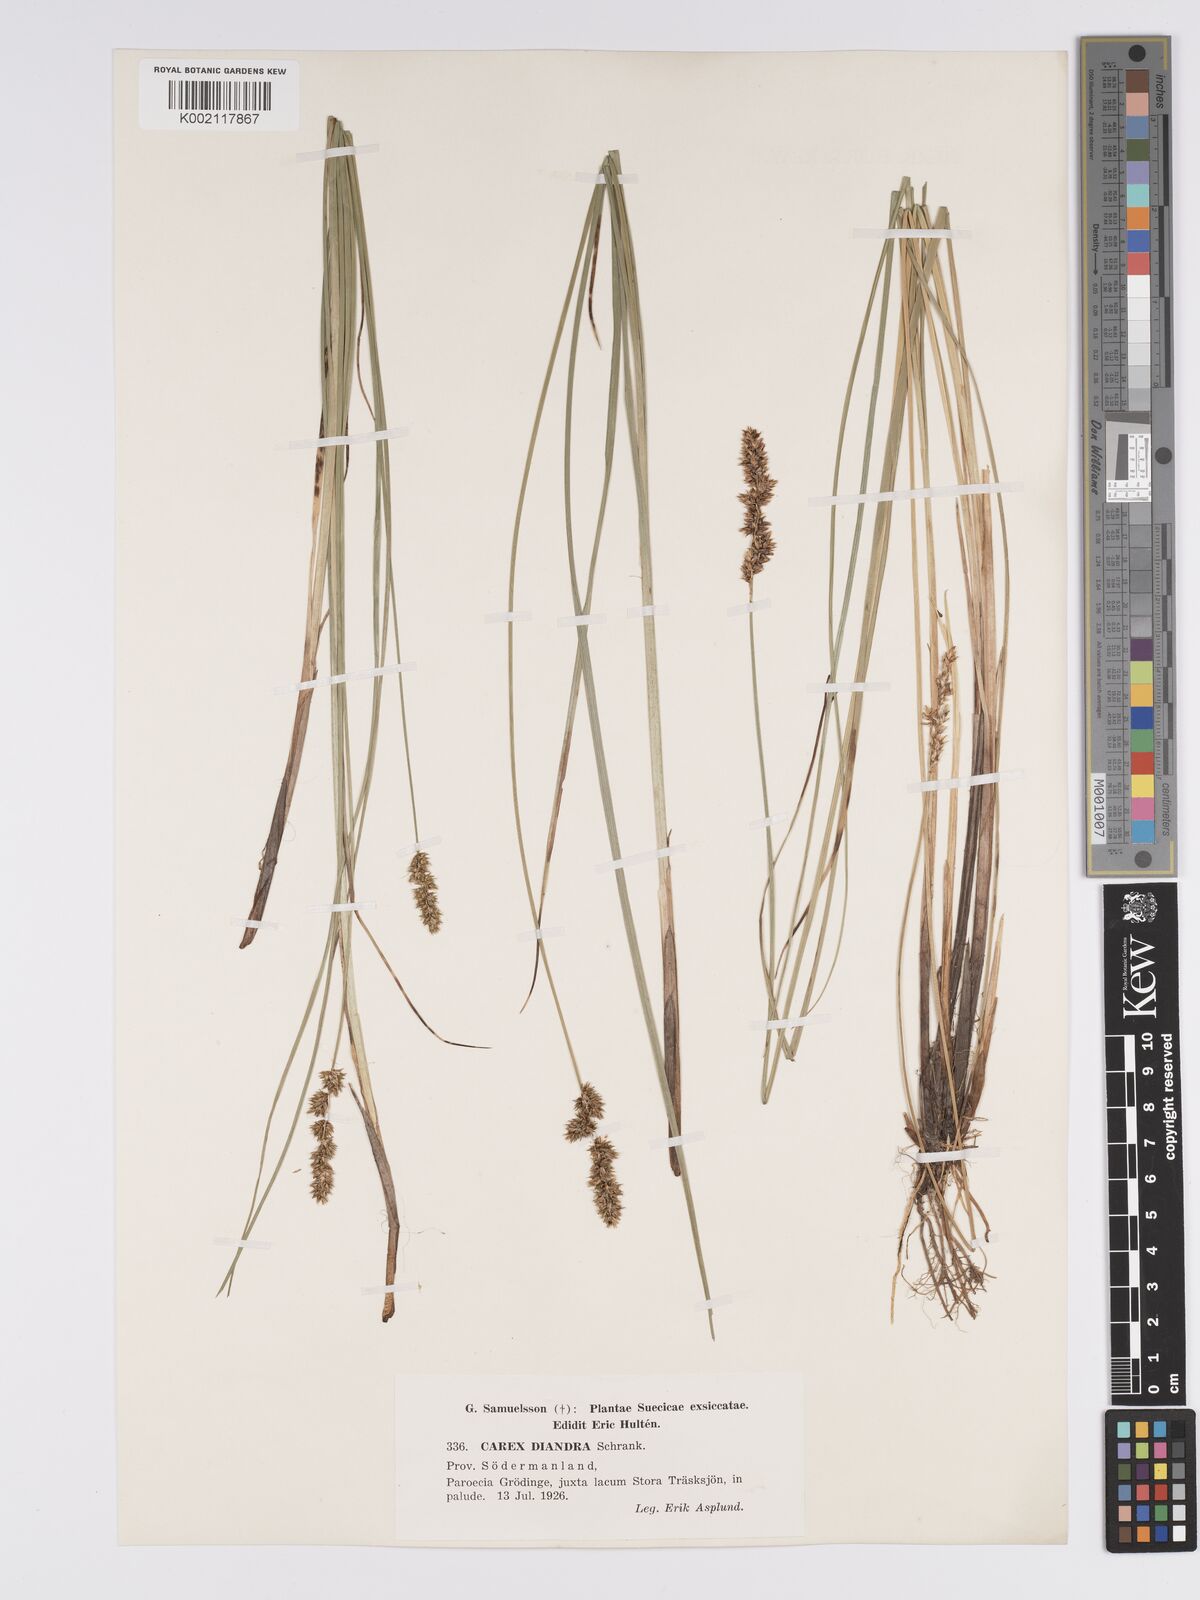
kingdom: Plantae
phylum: Tracheophyta
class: Liliopsida
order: Poales
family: Cyperaceae
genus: Carex
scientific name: Carex diandra
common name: Lesser tussock-sedge
